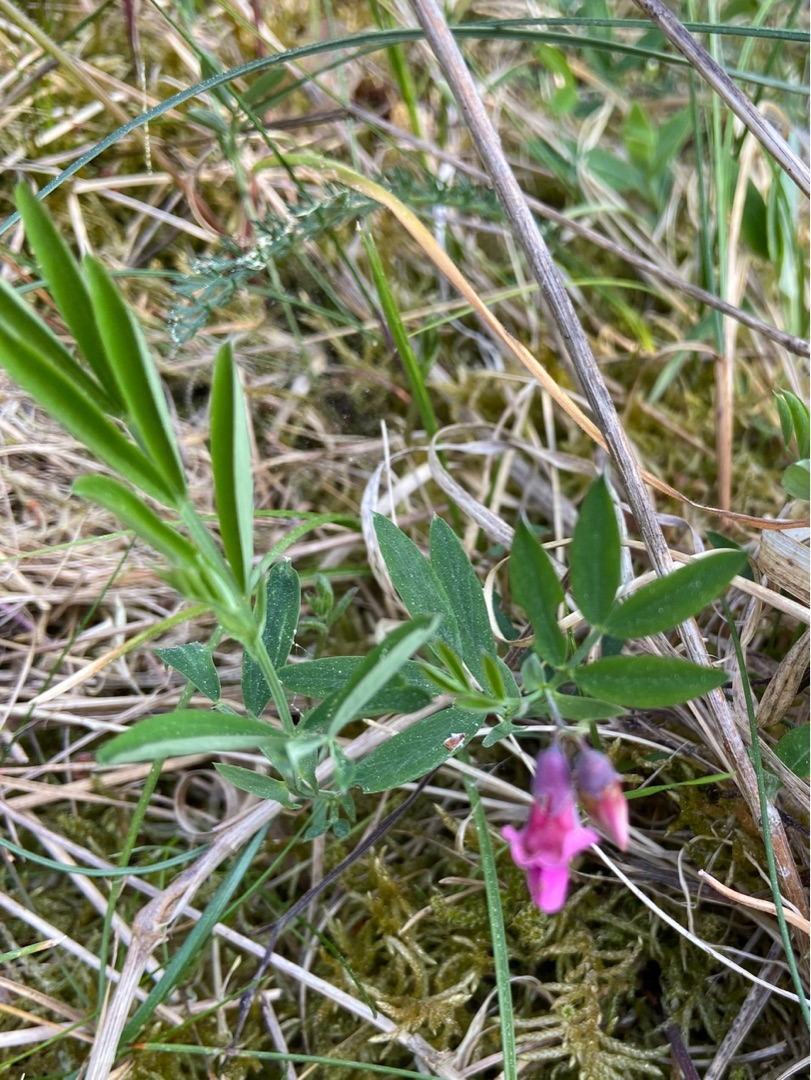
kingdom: Plantae
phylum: Tracheophyta
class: Magnoliopsida
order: Fabales
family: Fabaceae
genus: Lathyrus
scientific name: Lathyrus linifolius
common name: Krat-fladbælg
